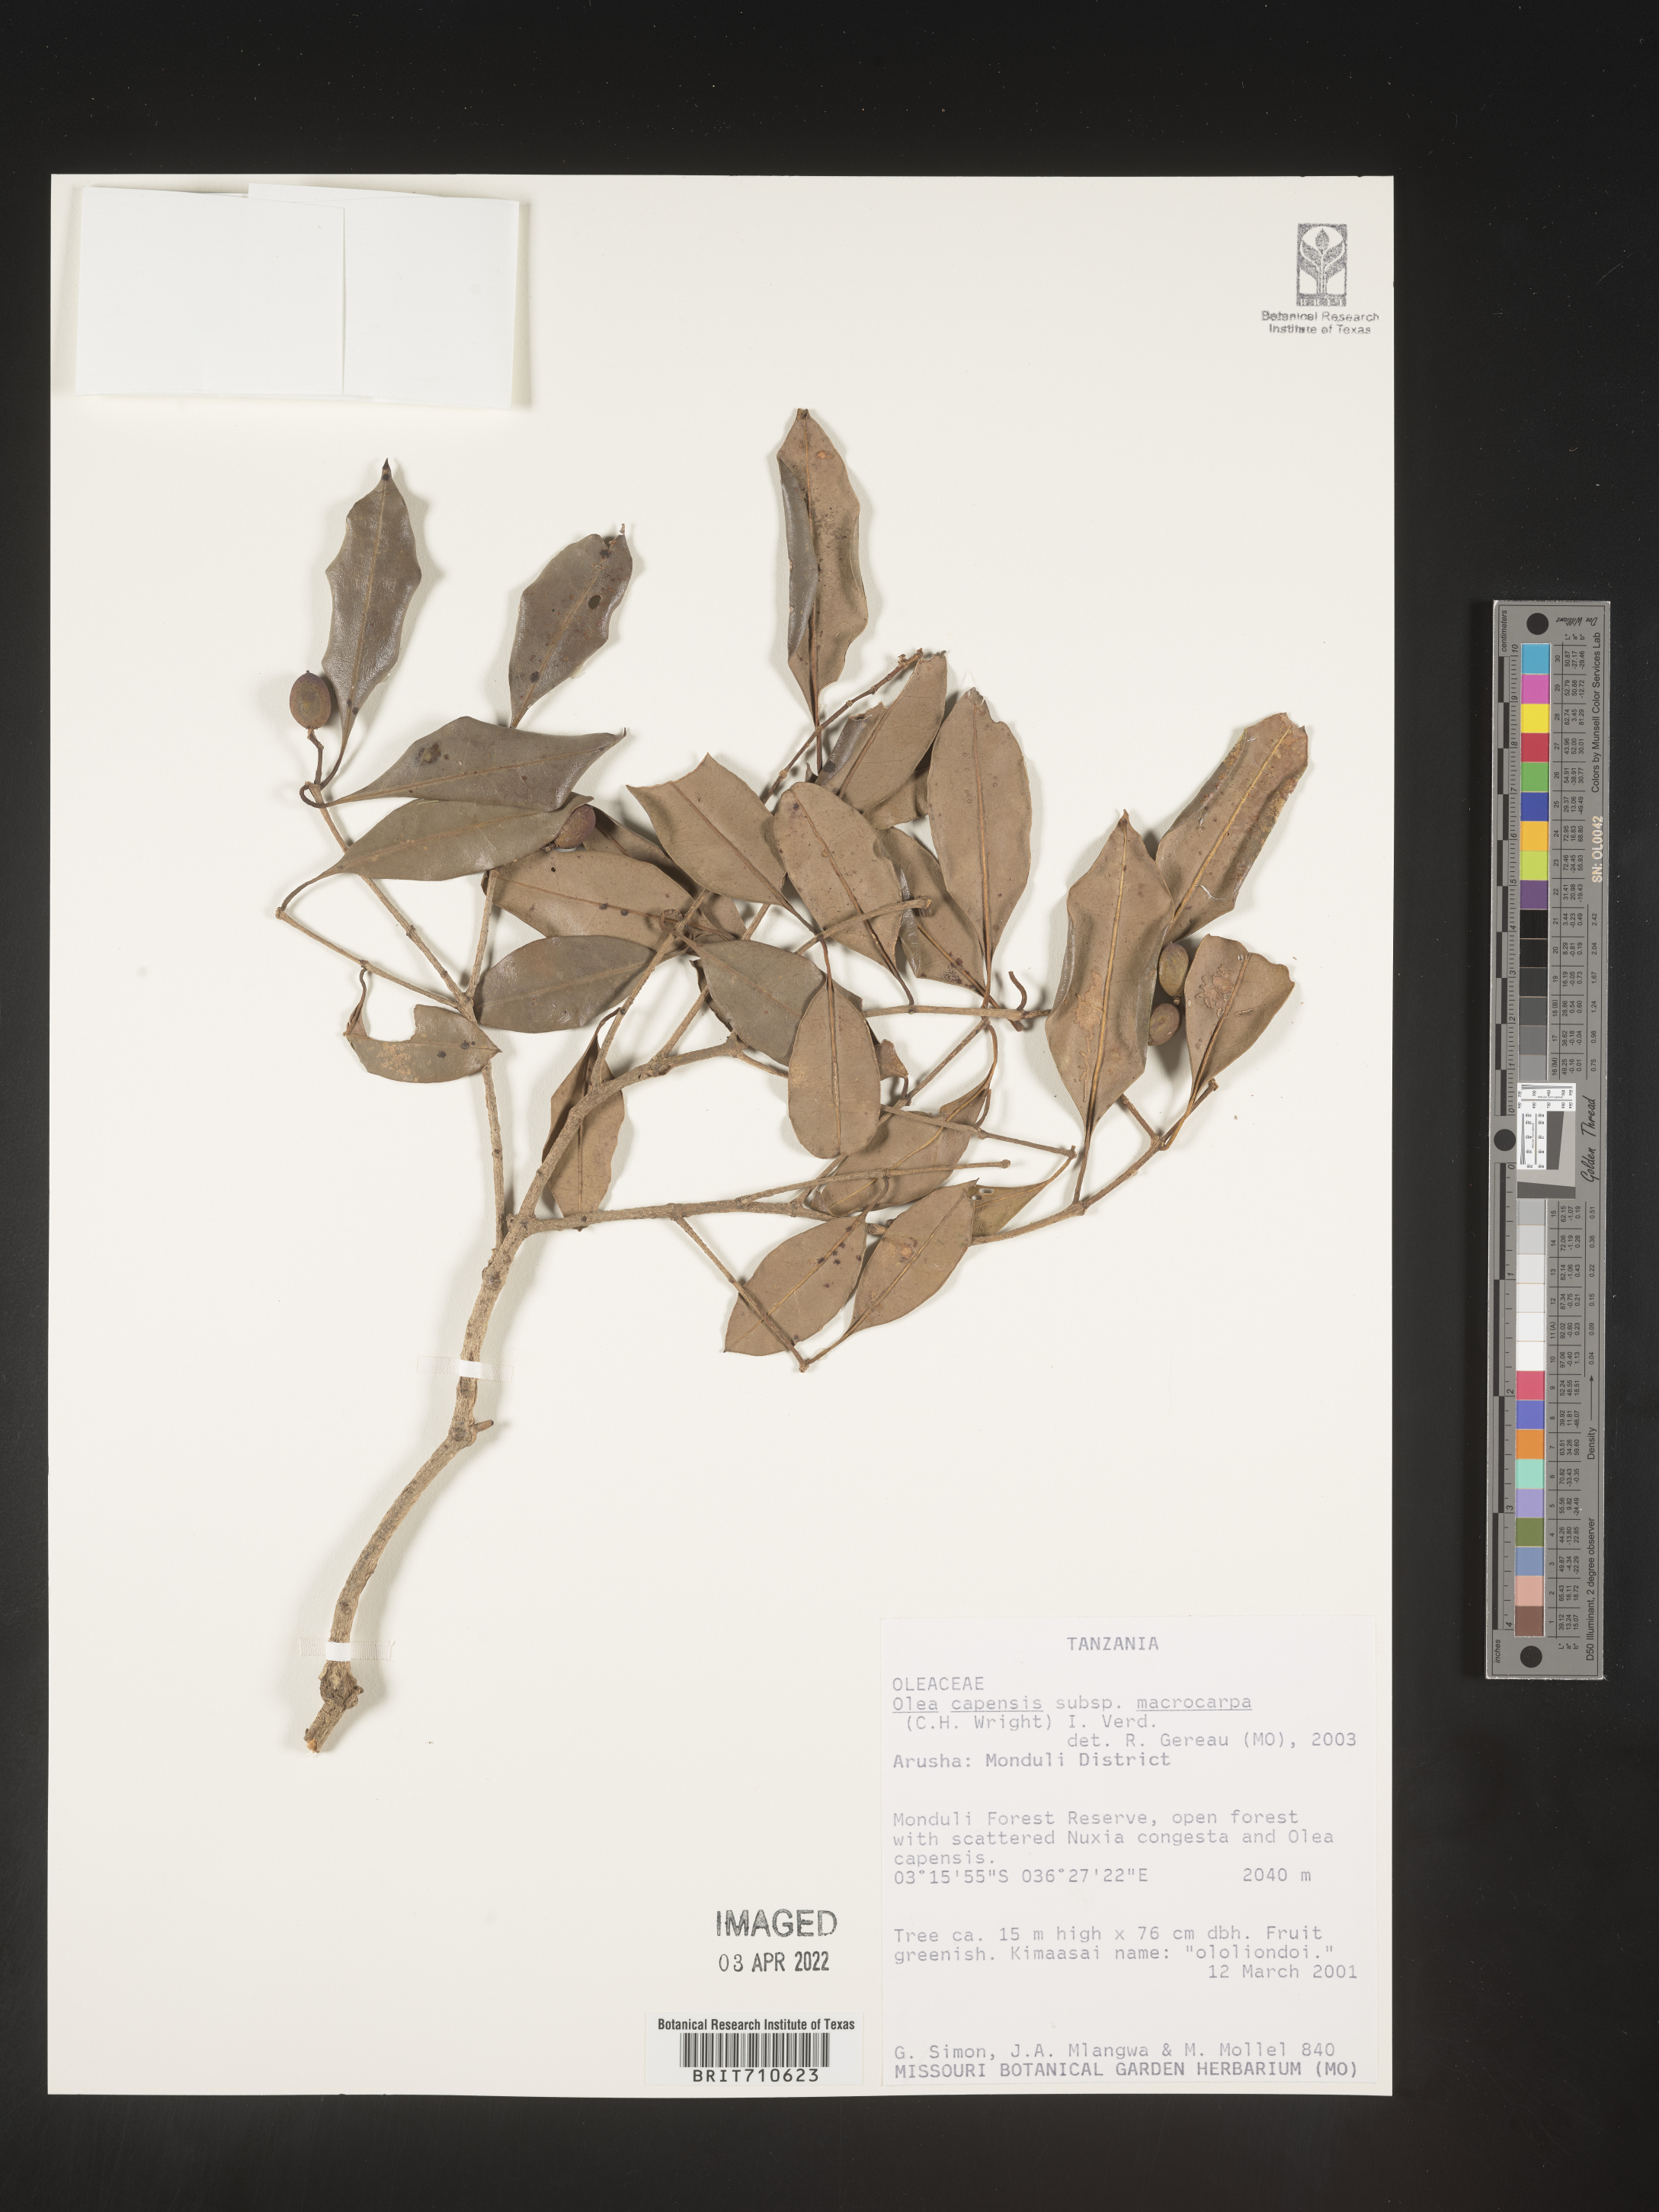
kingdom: Plantae
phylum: Tracheophyta
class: Magnoliopsida
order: Lamiales
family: Oleaceae
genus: Olea
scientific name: Olea
